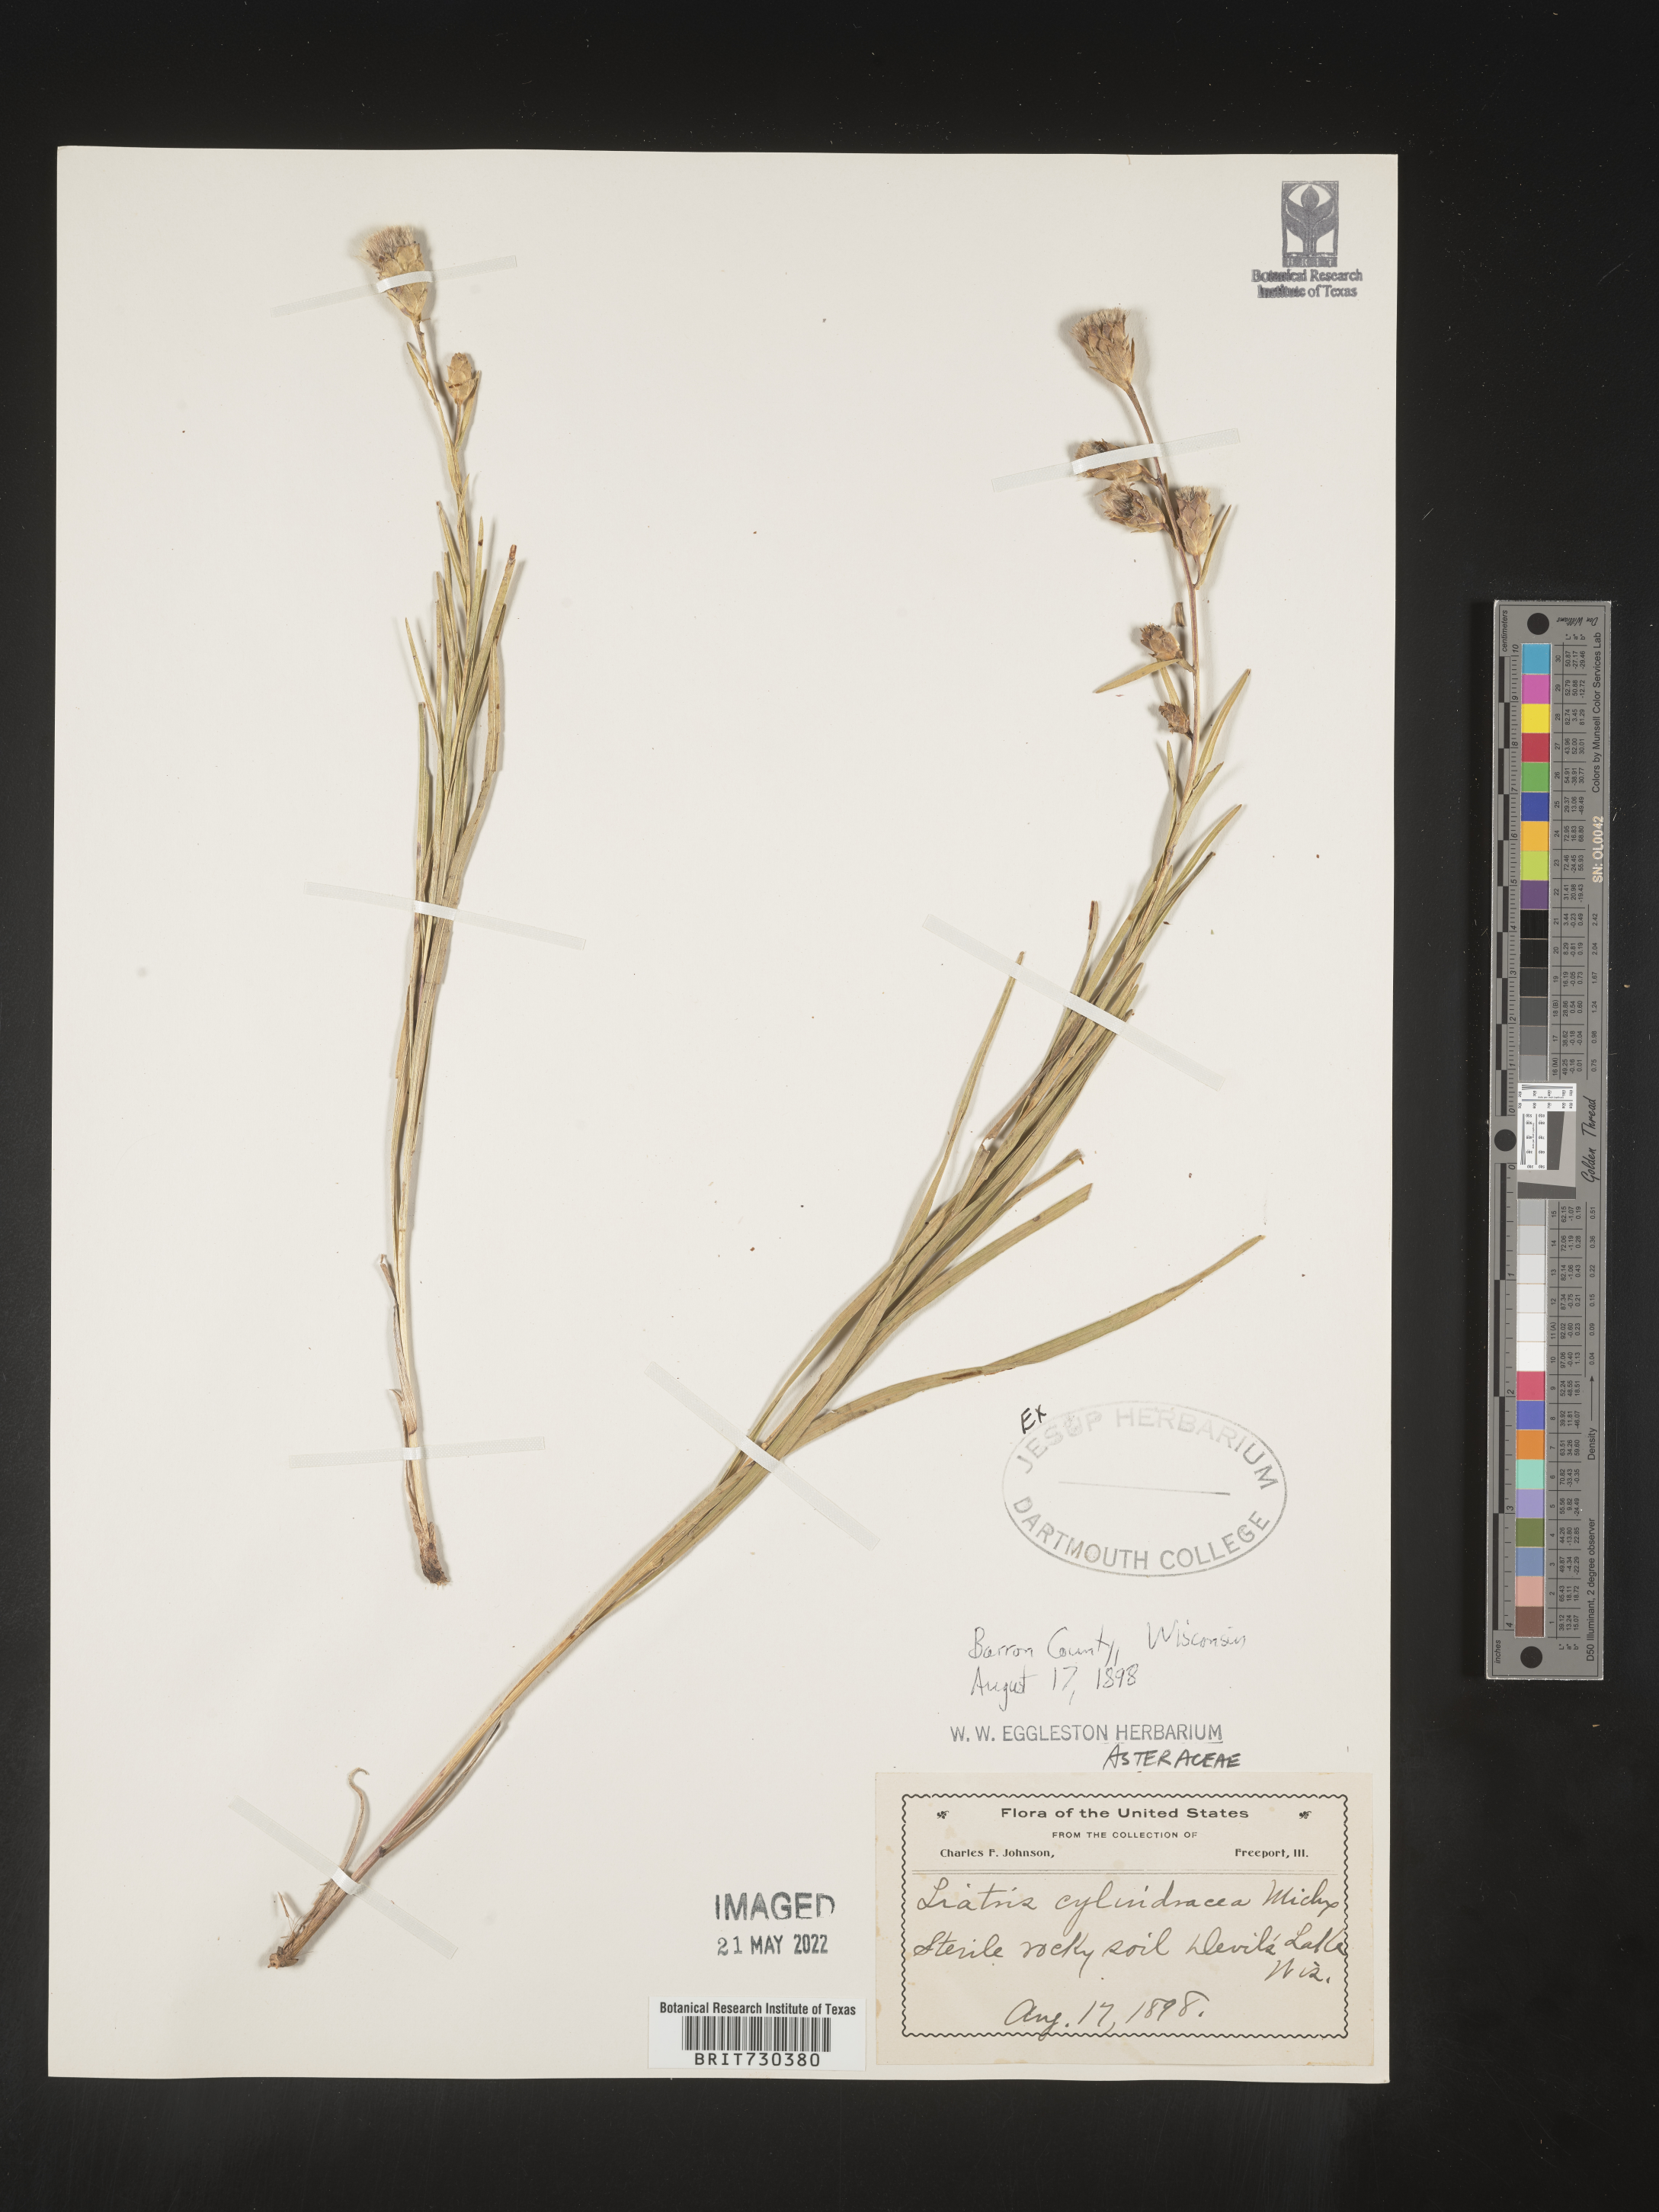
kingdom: Plantae
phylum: Tracheophyta
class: Magnoliopsida
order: Asterales
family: Asteraceae
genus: Liatris
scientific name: Liatris cylindracea
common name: Few-head blazingstar
